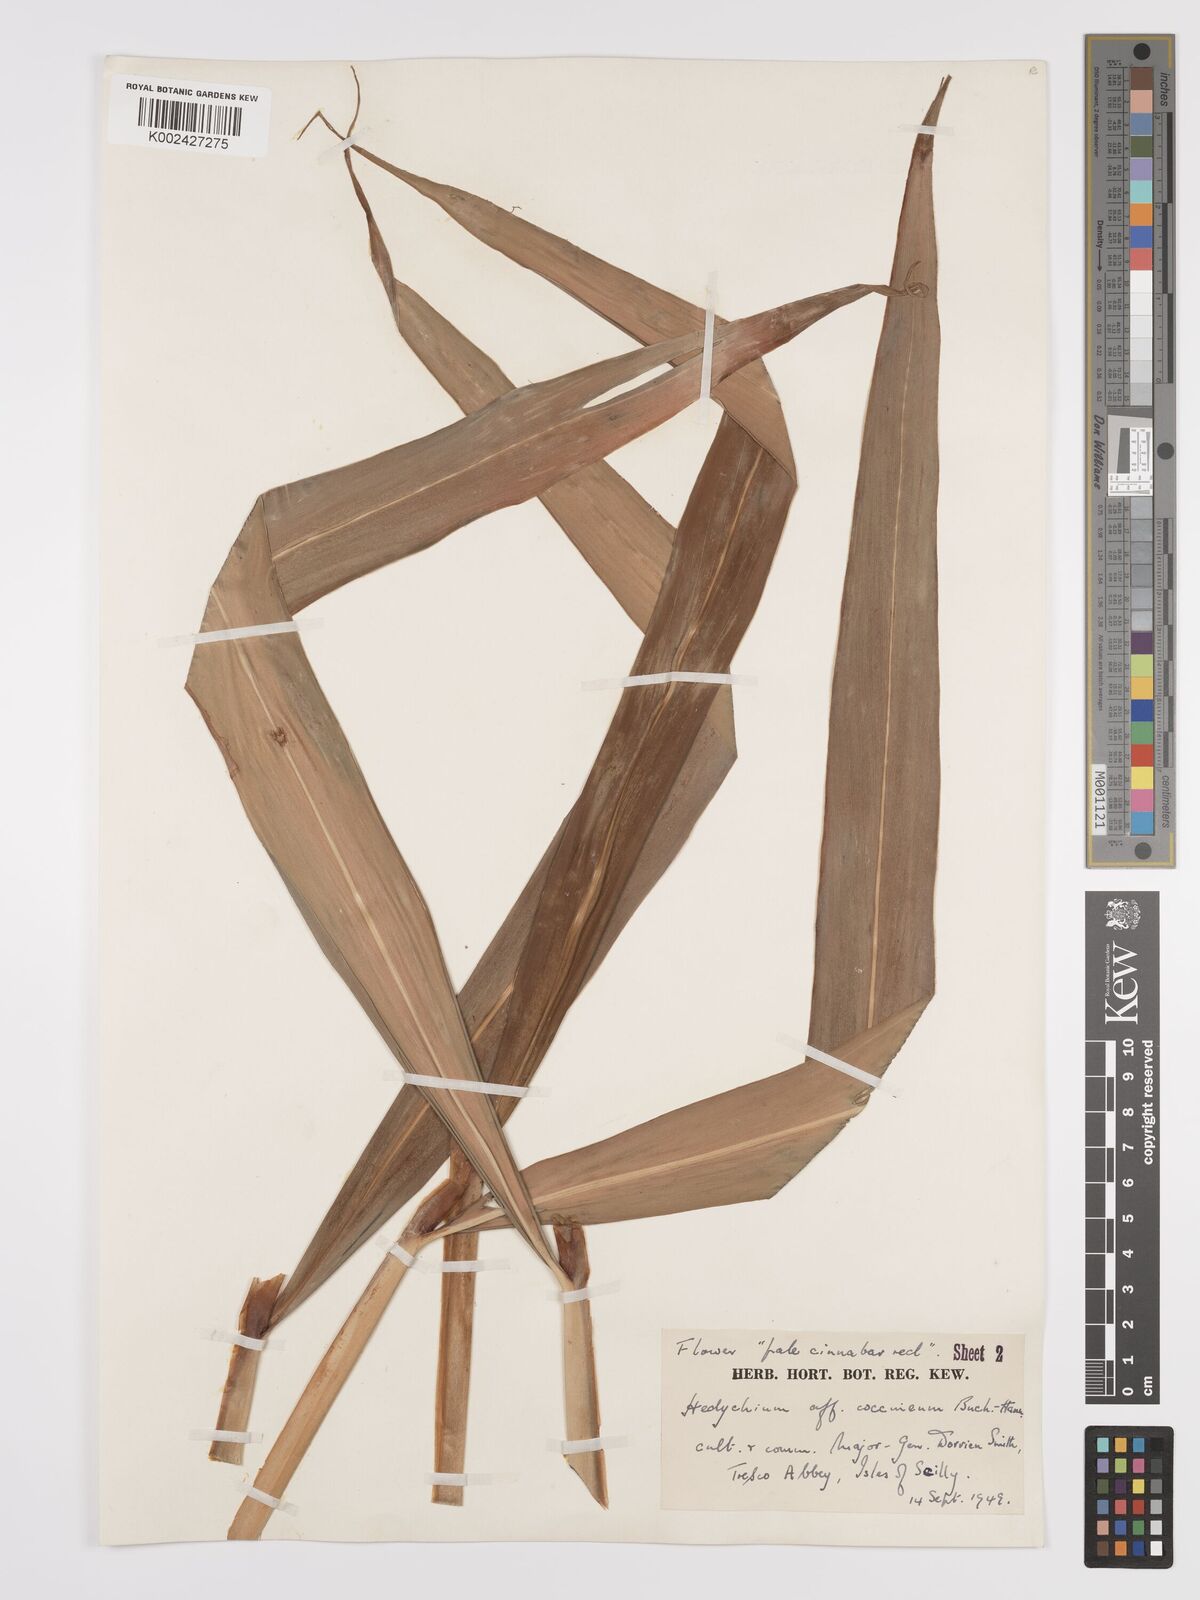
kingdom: Plantae
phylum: Tracheophyta
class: Liliopsida
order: Zingiberales
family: Zingiberaceae
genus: Hedychium
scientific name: Hedychium coccineum
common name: Red ginger-lily
